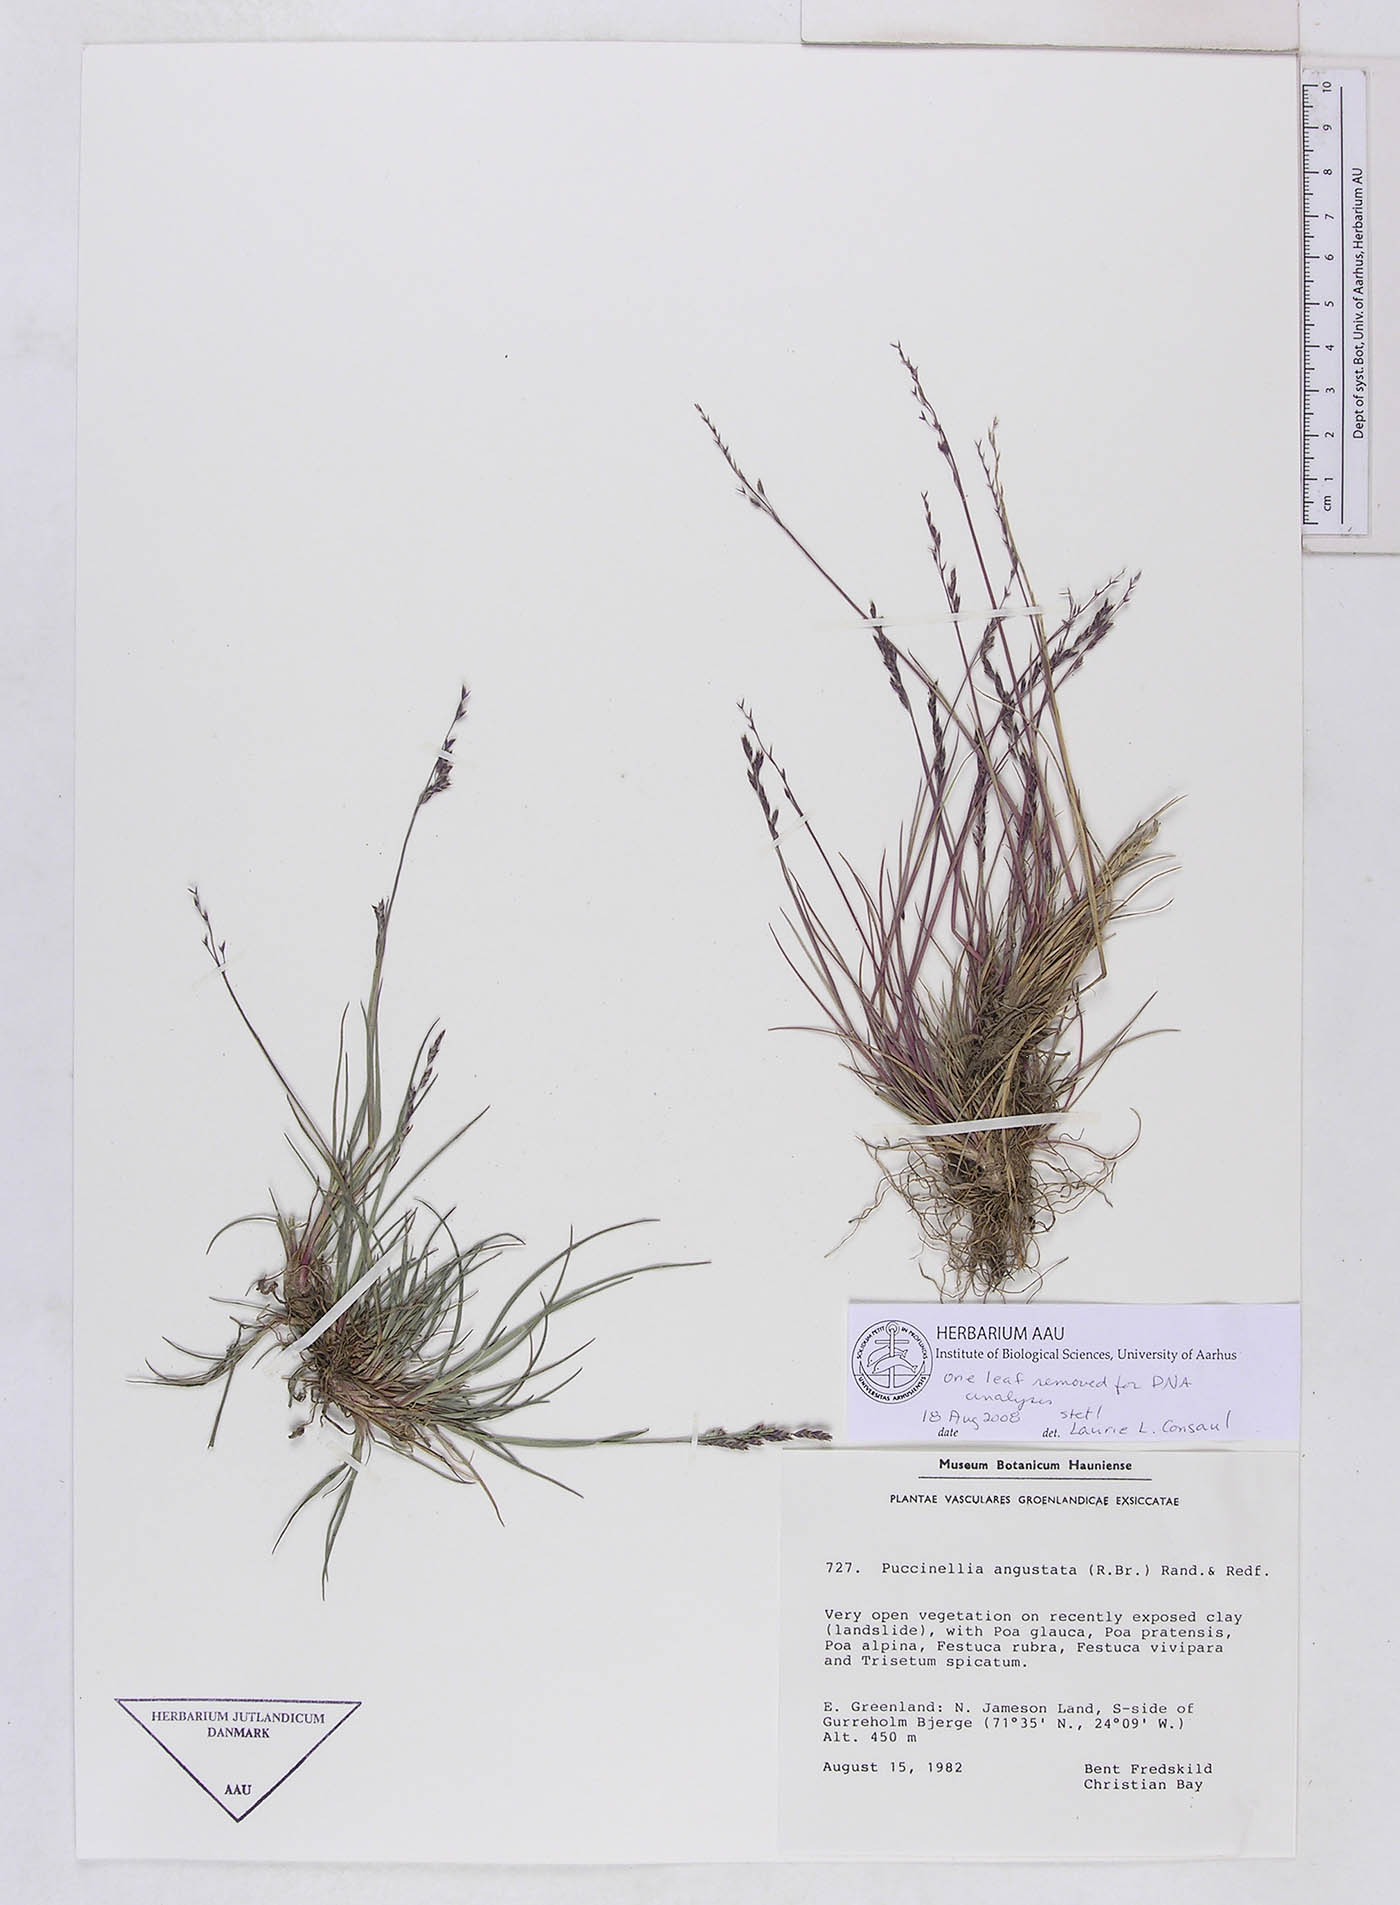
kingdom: Plantae
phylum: Tracheophyta
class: Liliopsida
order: Poales
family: Poaceae
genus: Puccinellia
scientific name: Puccinellia angustata
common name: Narrow alkaligrass
